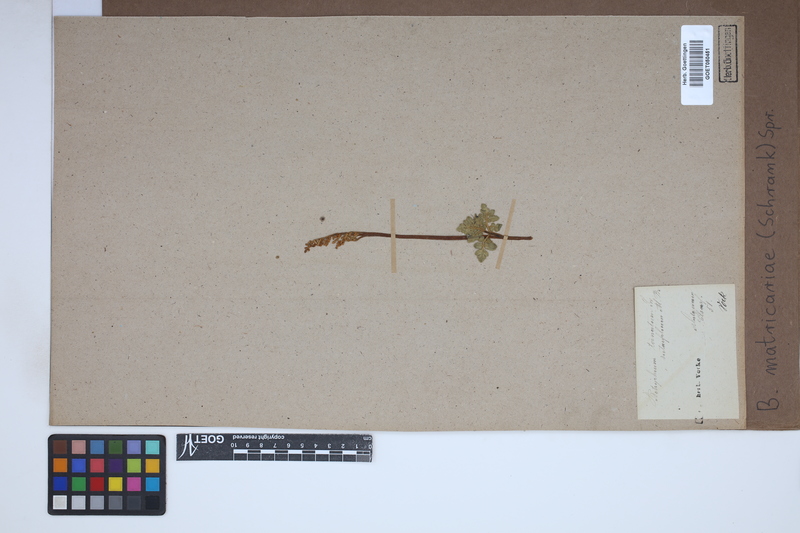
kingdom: Plantae
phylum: Tracheophyta
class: Polypodiopsida
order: Ophioglossales
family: Ophioglossaceae
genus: Sceptridium
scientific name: Sceptridium multifidum
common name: Leathery grape fern
